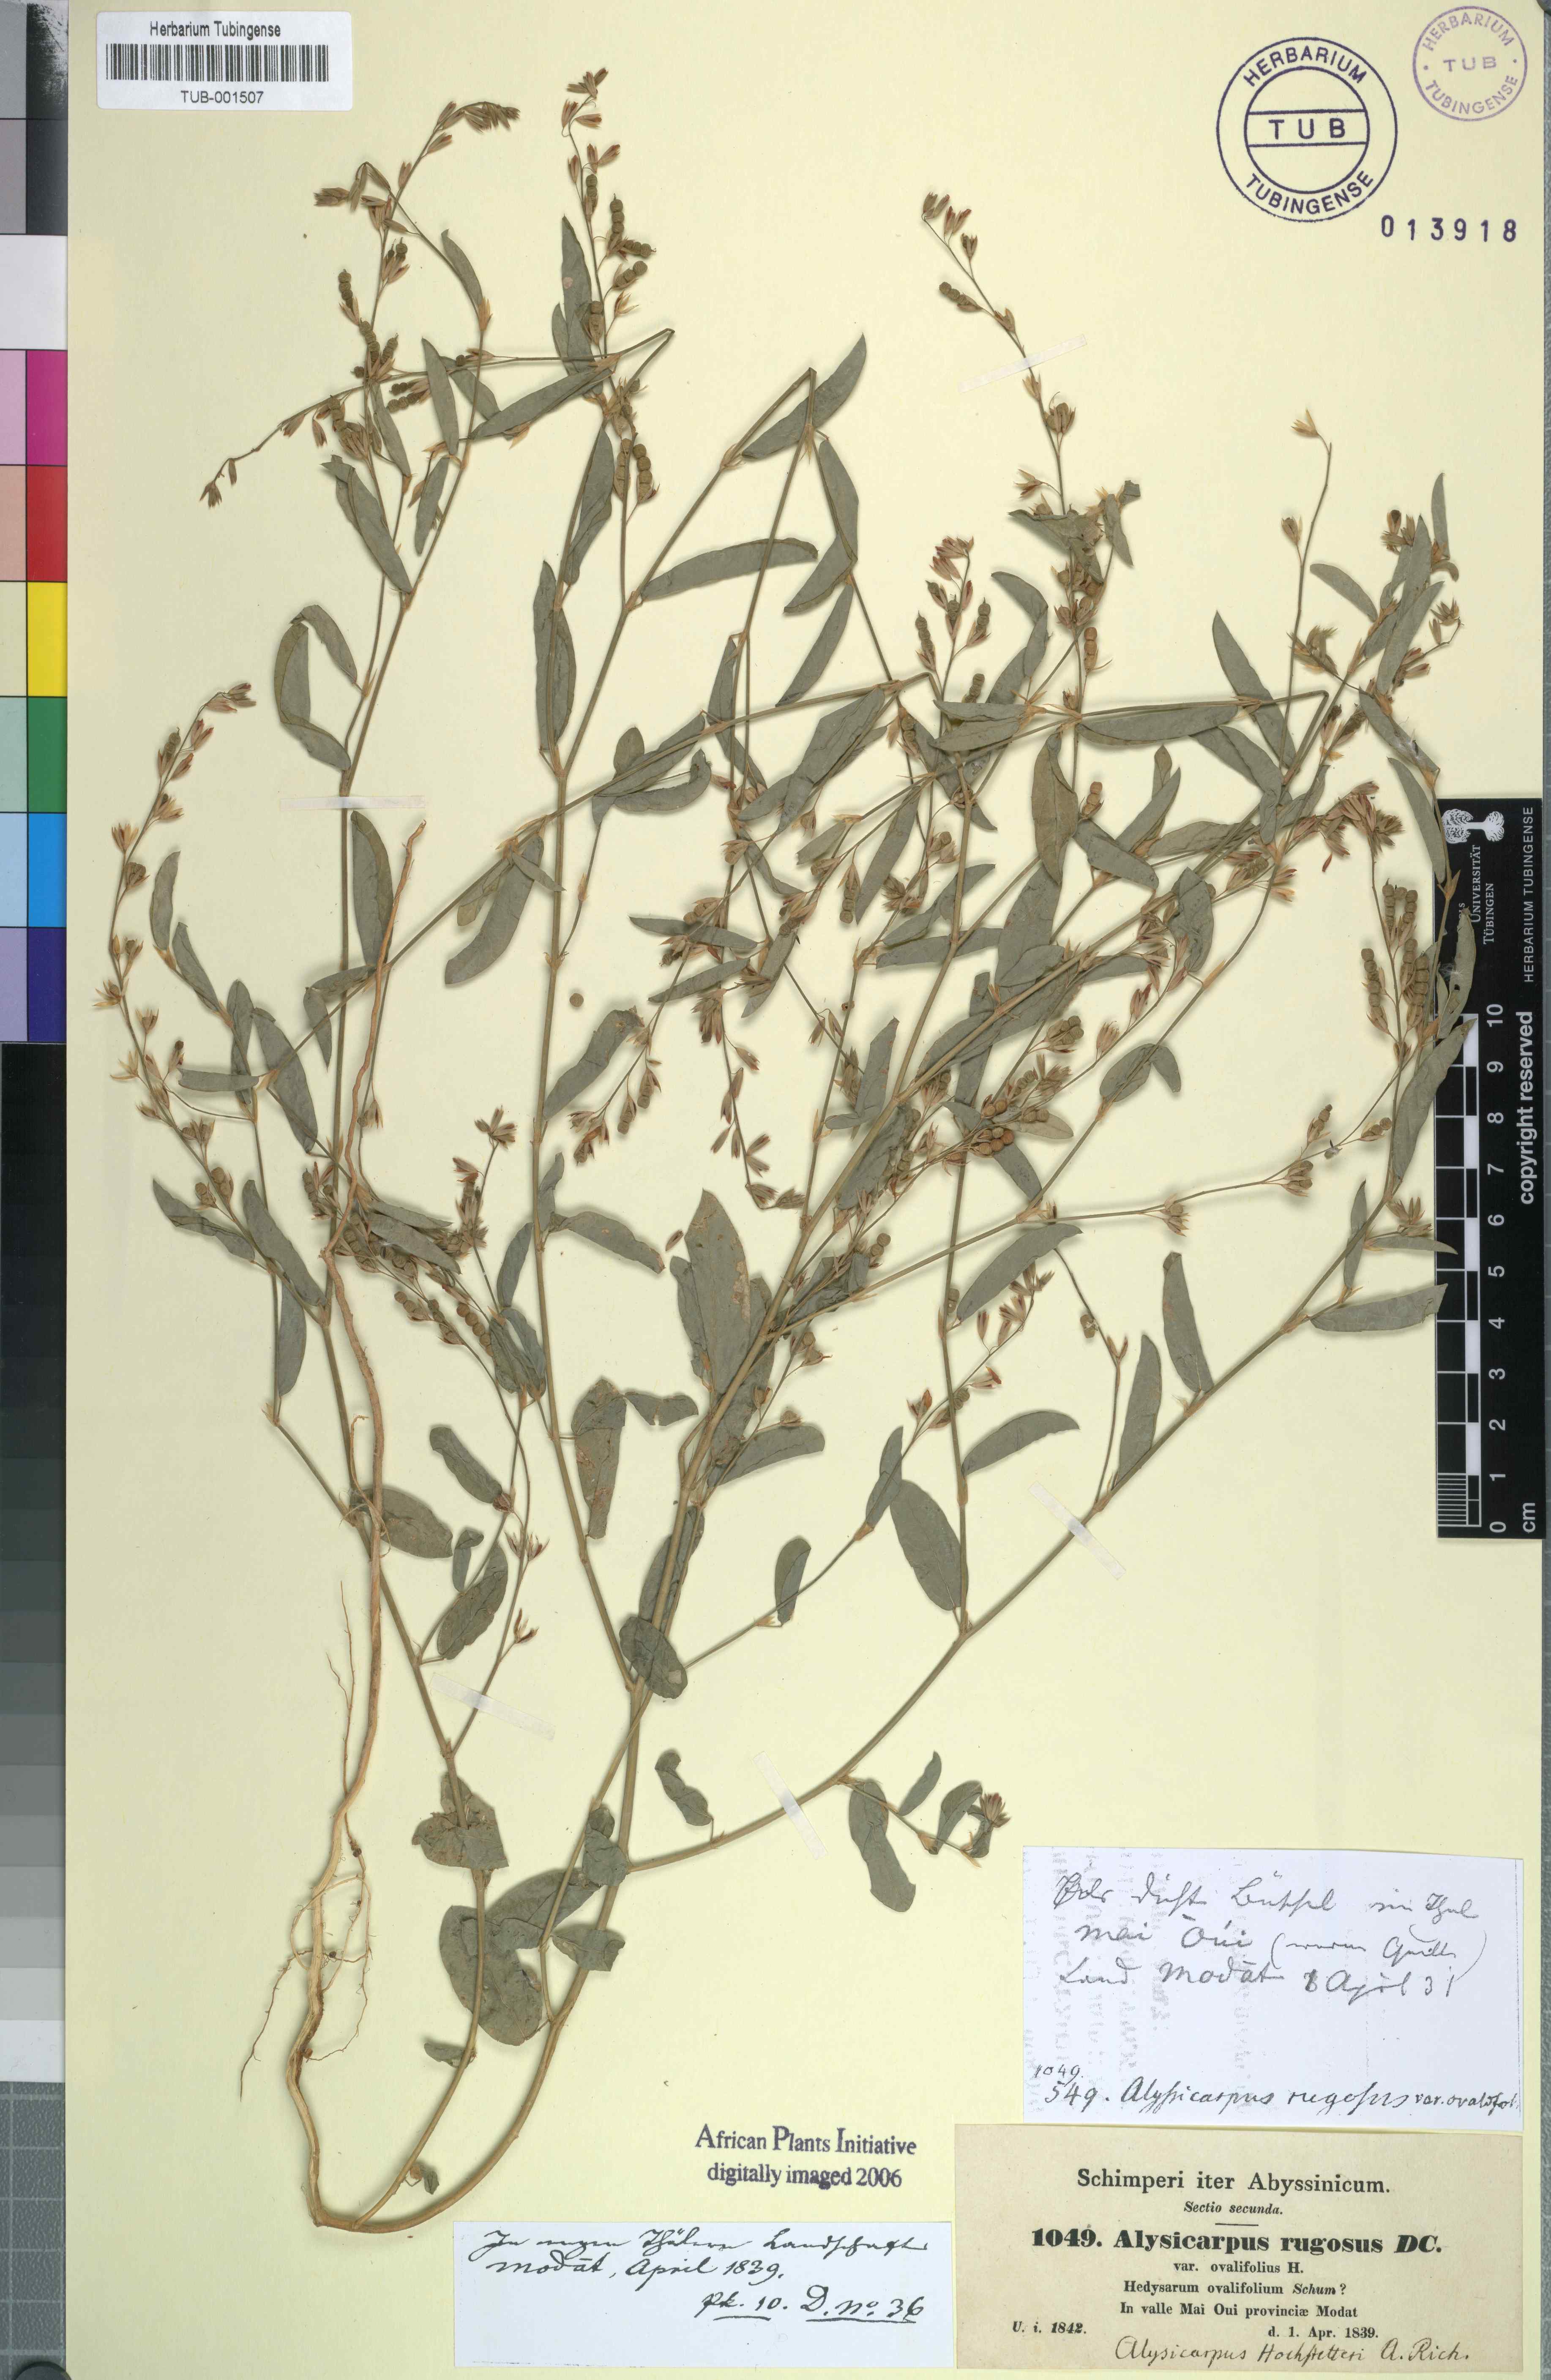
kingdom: Plantae
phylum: Tracheophyta
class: Magnoliopsida
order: Fabales
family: Fabaceae
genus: Alysicarpus
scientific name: Alysicarpus rugosus
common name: Red moneywort
